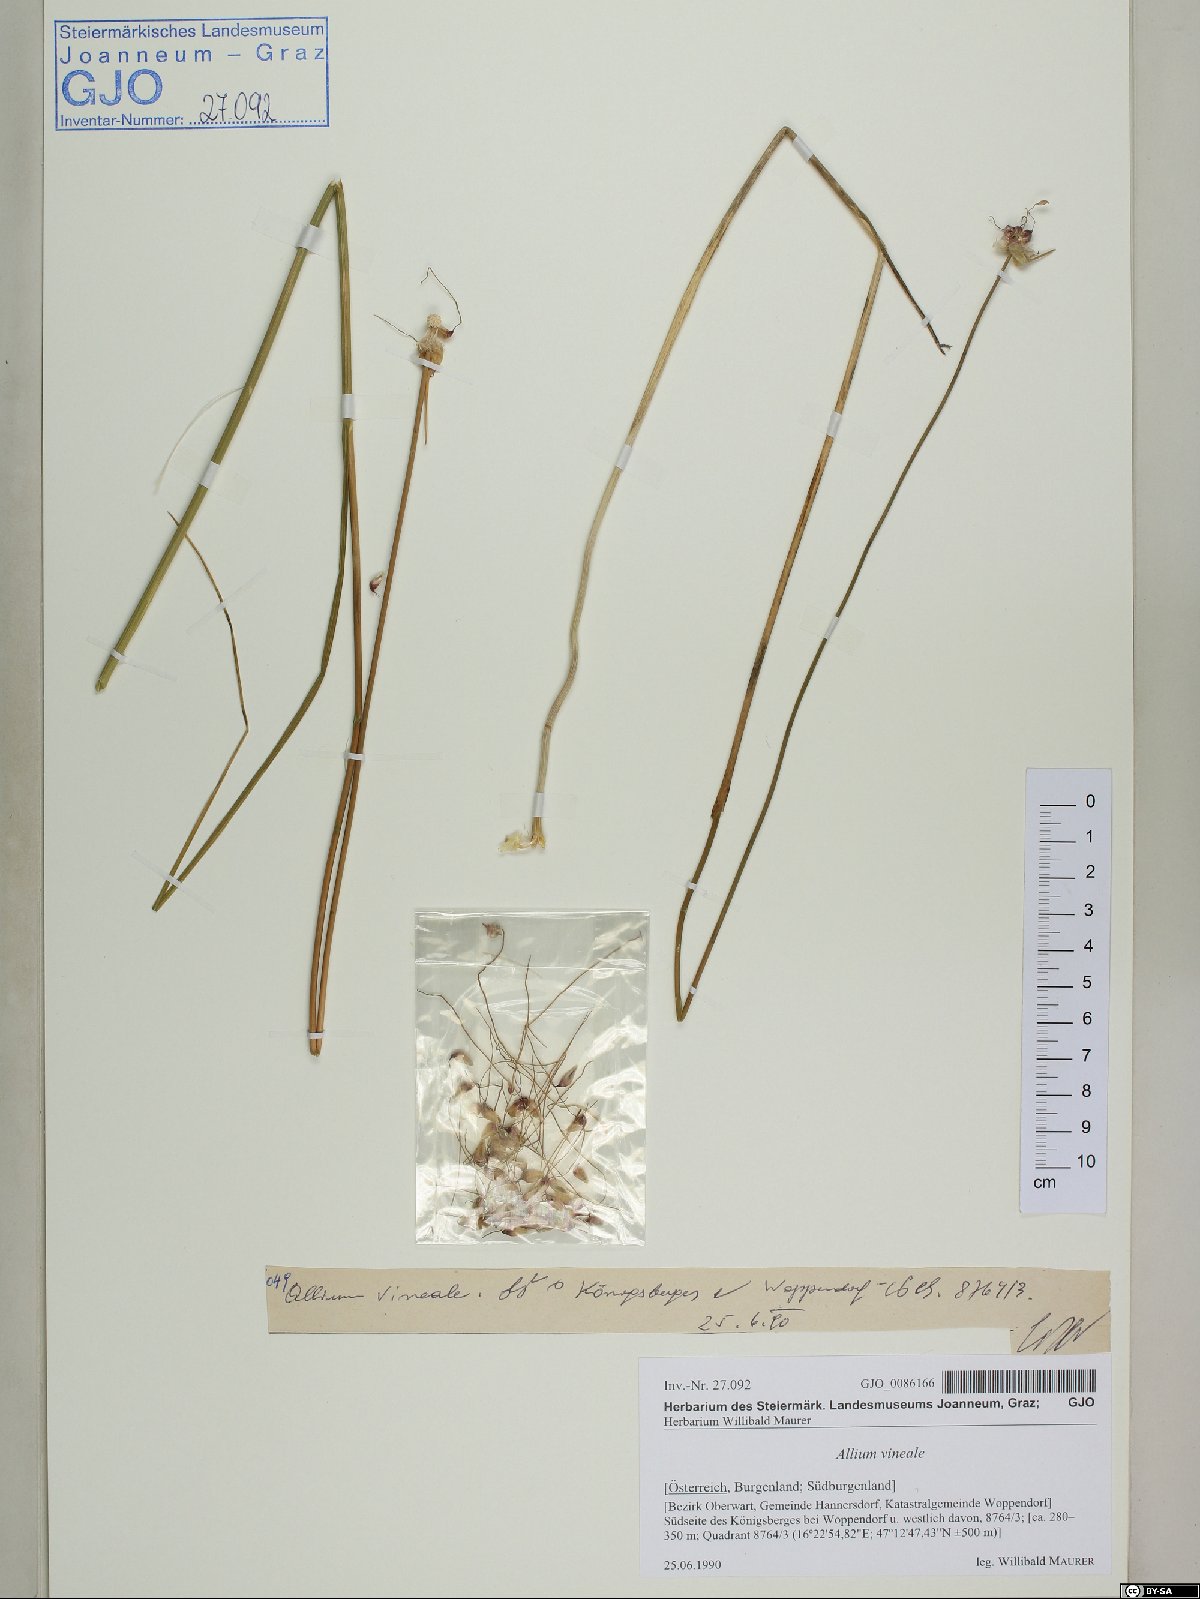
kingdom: Plantae
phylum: Tracheophyta
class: Liliopsida
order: Asparagales
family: Amaryllidaceae
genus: Allium
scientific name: Allium vineale
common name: Crow garlic
